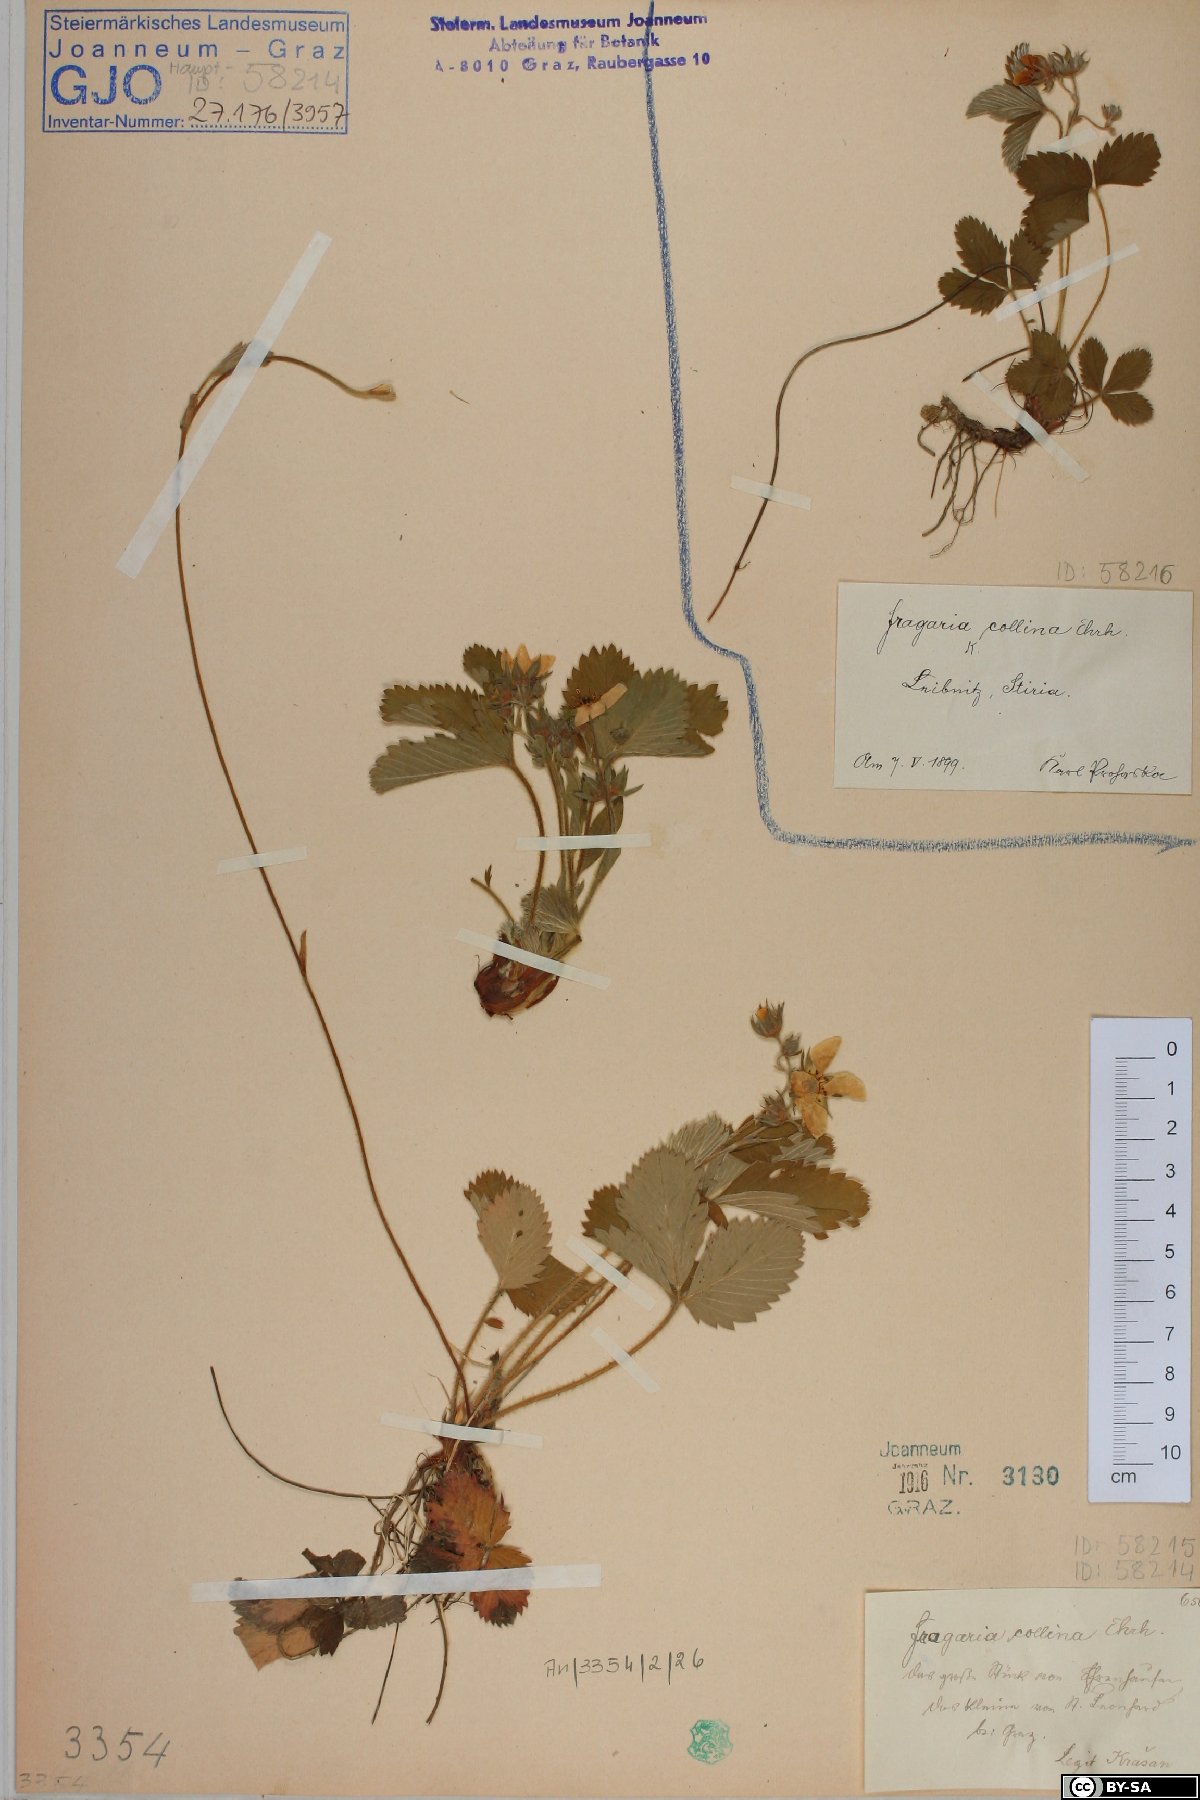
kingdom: Plantae
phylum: Tracheophyta
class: Magnoliopsida
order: Rosales
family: Rosaceae
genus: Fragaria
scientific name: Fragaria viridis
